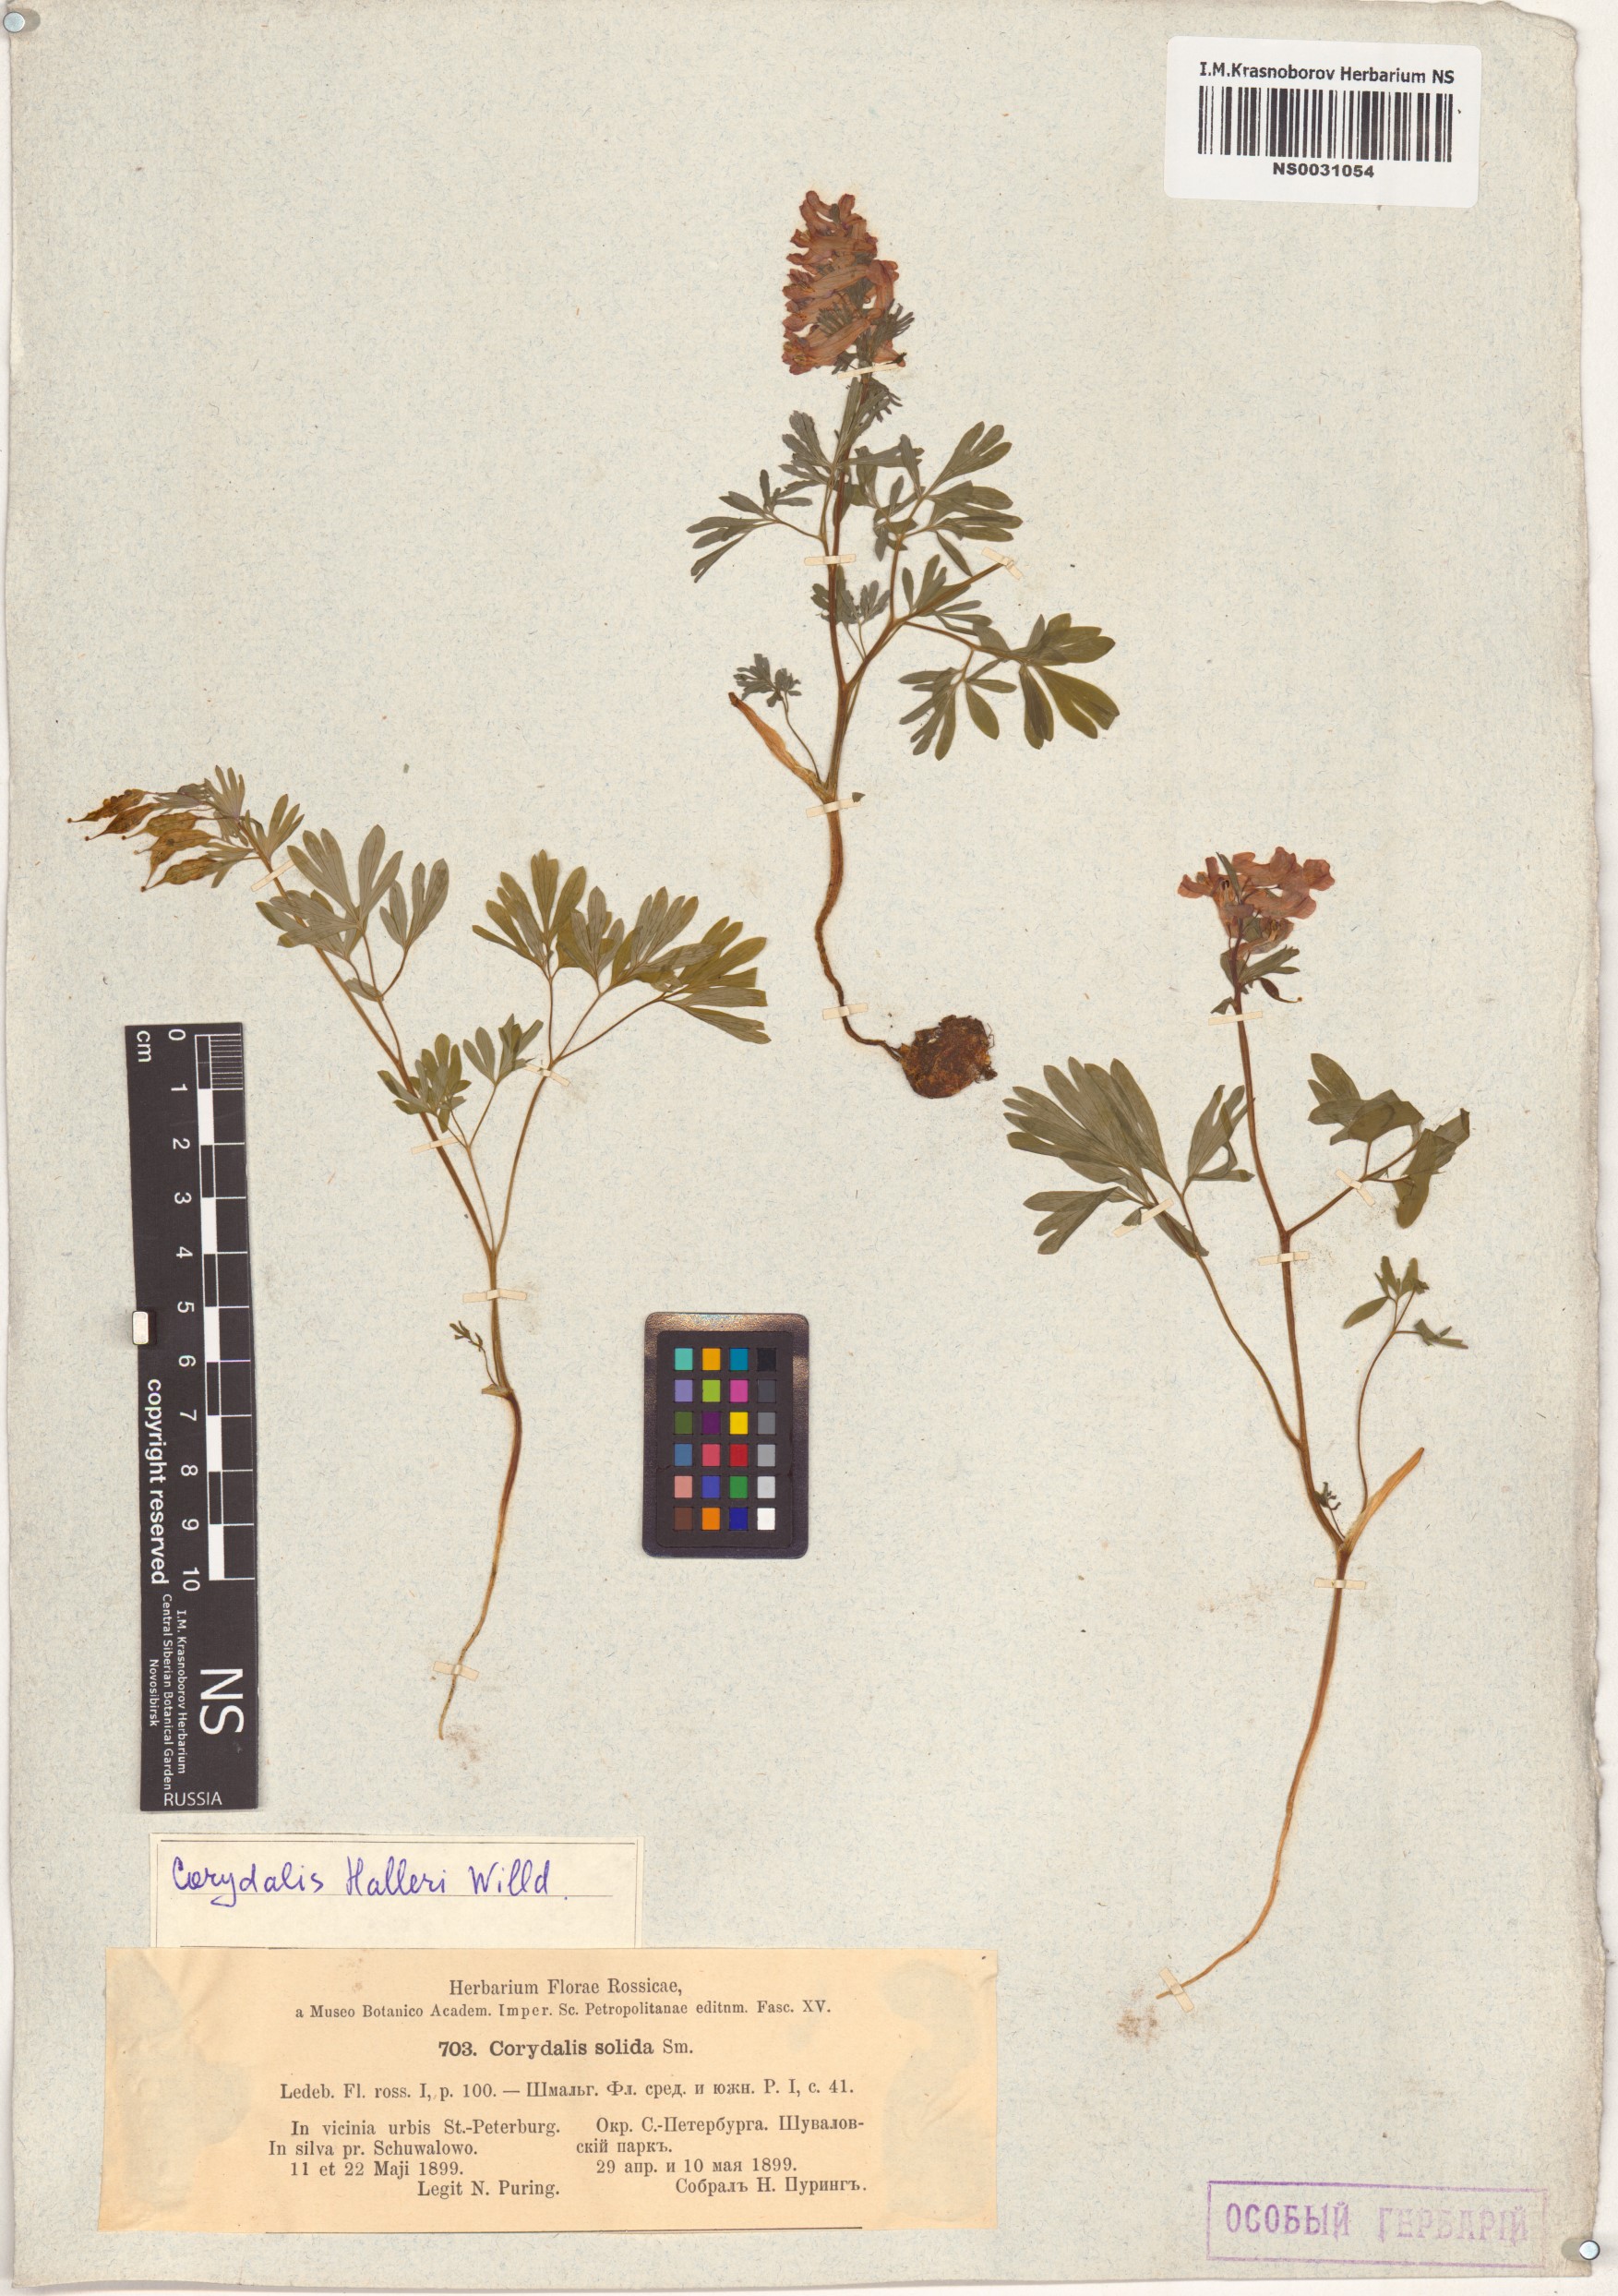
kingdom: Plantae
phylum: Tracheophyta
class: Magnoliopsida
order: Ranunculales
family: Papaveraceae
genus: Corydalis
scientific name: Corydalis solida
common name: Bird-in-a-bush
